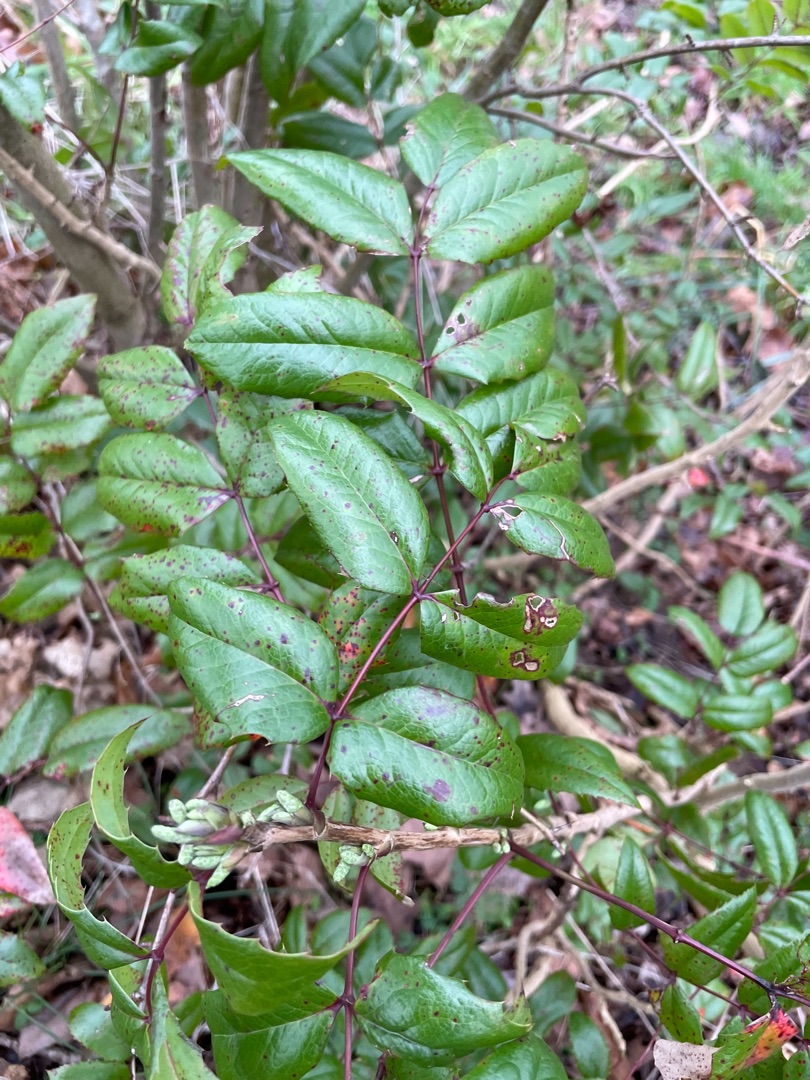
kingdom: Plantae
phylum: Tracheophyta
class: Magnoliopsida
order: Ranunculales
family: Berberidaceae
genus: Mahonia
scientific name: Mahonia aquifolium
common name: Almindelig mahonie
